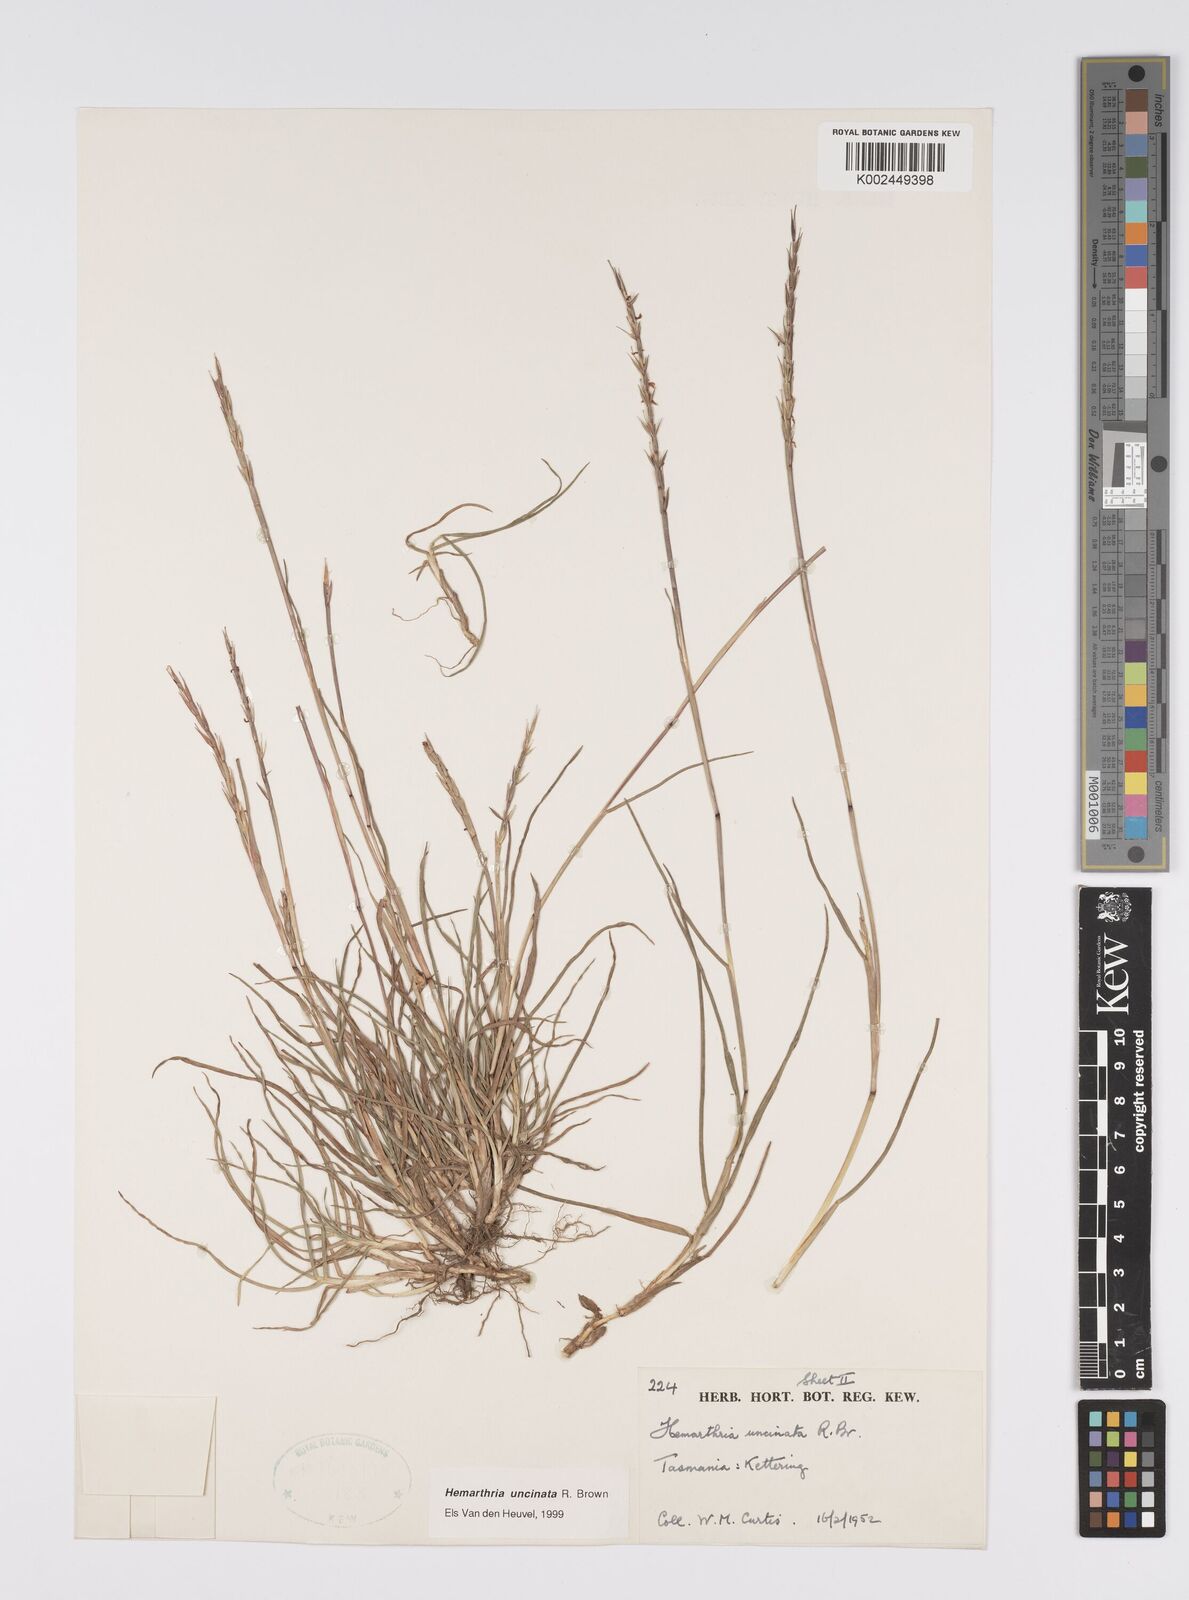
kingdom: Plantae
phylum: Tracheophyta
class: Liliopsida
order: Poales
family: Poaceae
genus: Hemarthria
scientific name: Hemarthria uncinata
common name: Matgrass
